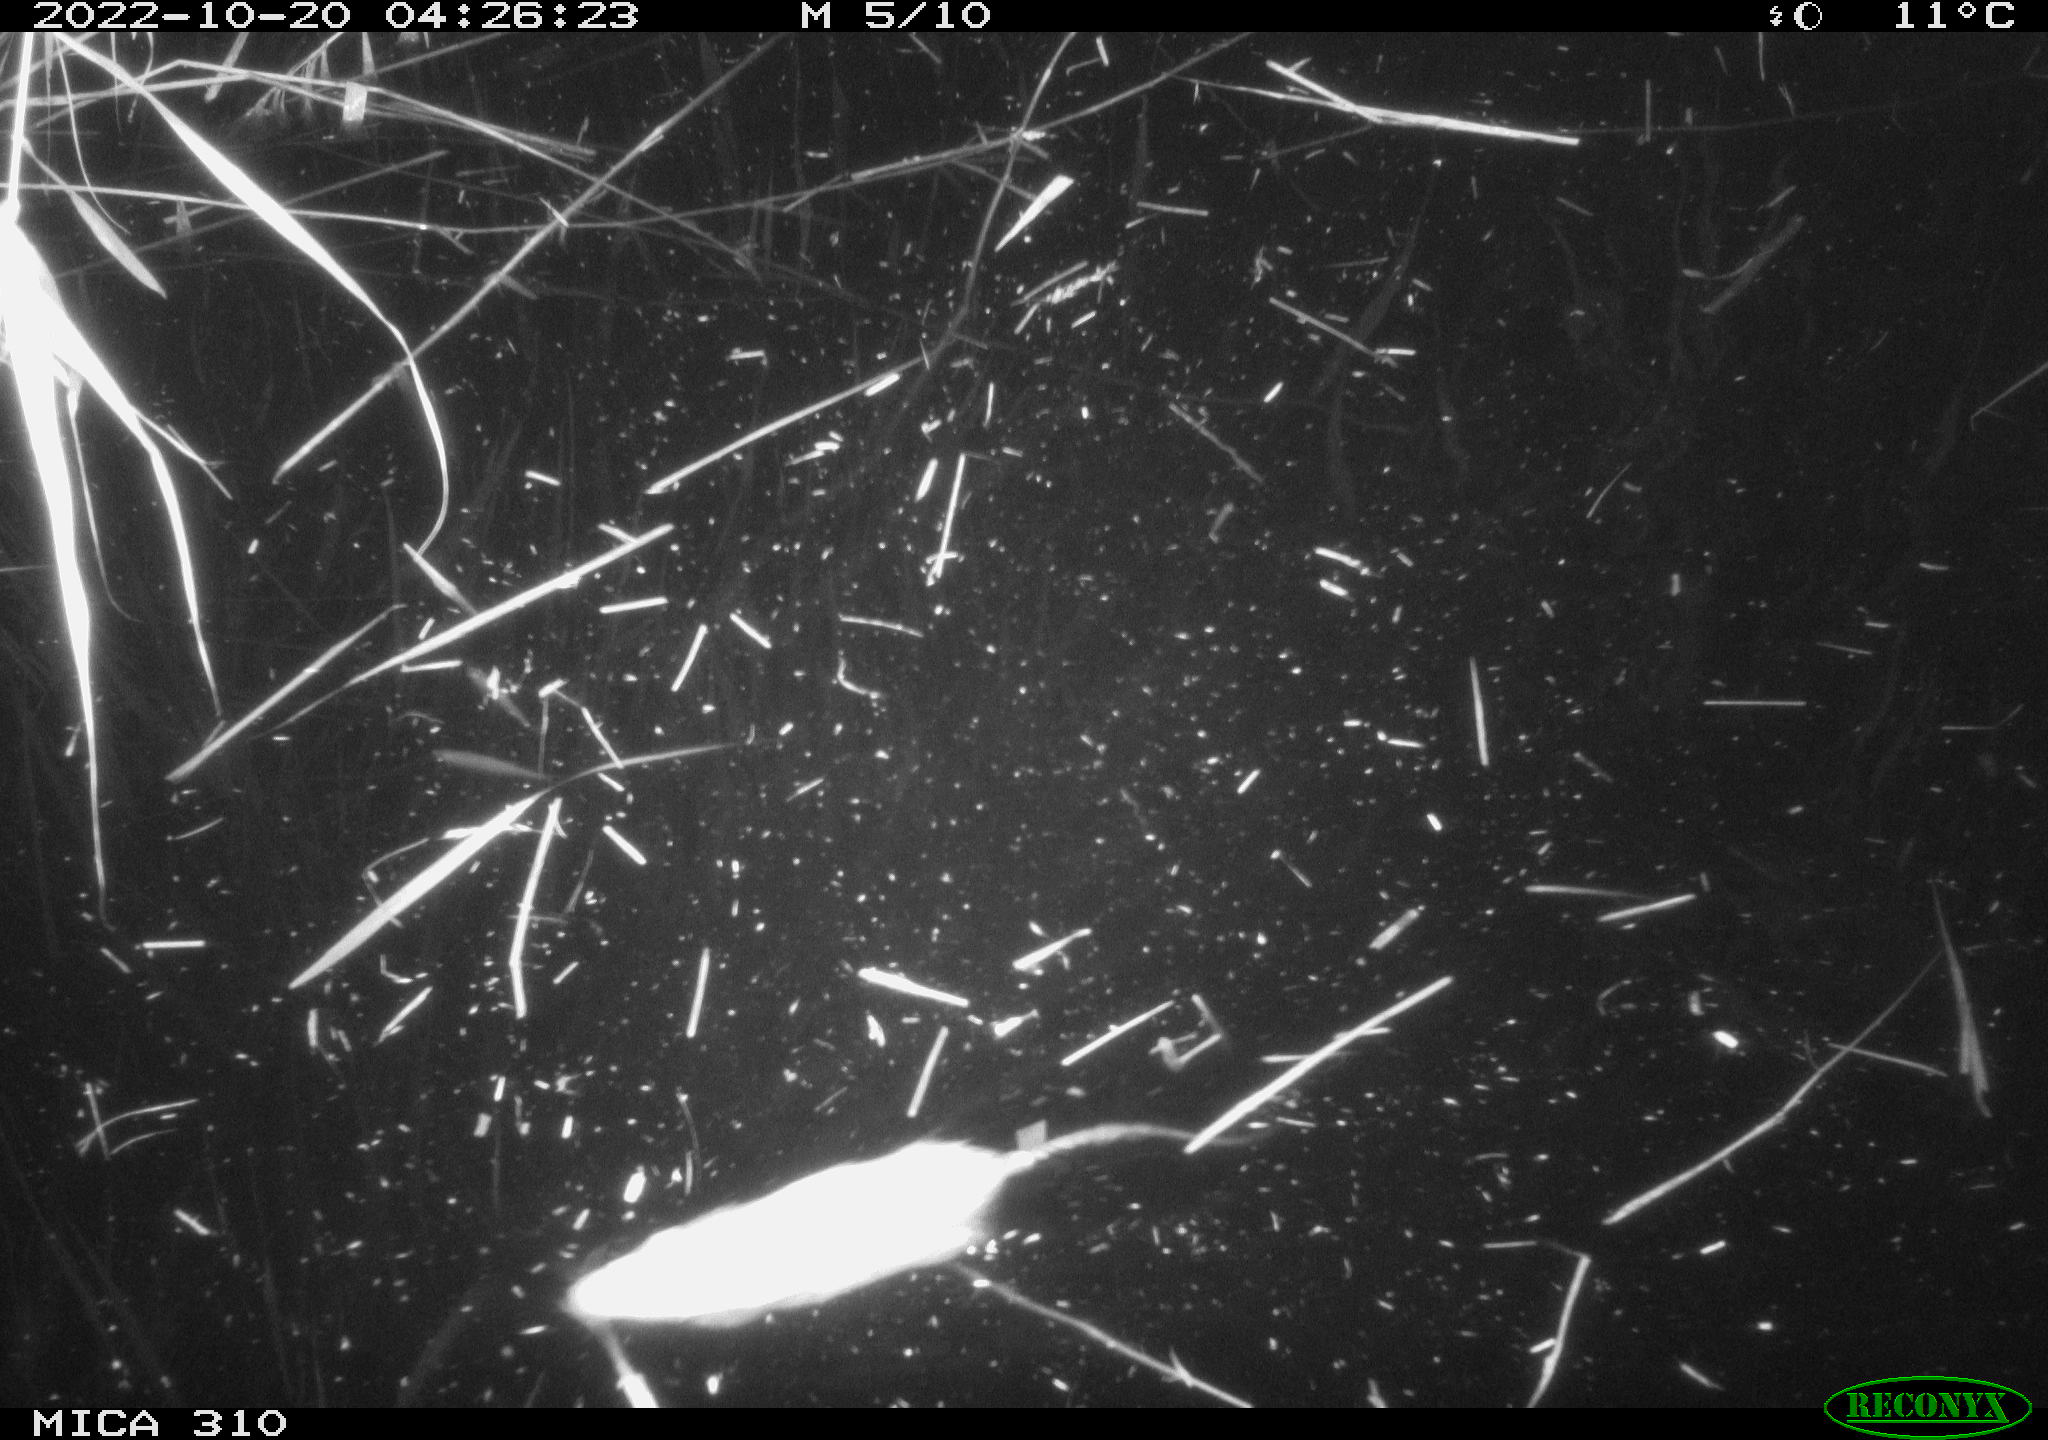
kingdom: Animalia
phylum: Chordata
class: Mammalia
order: Rodentia
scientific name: Rodentia
